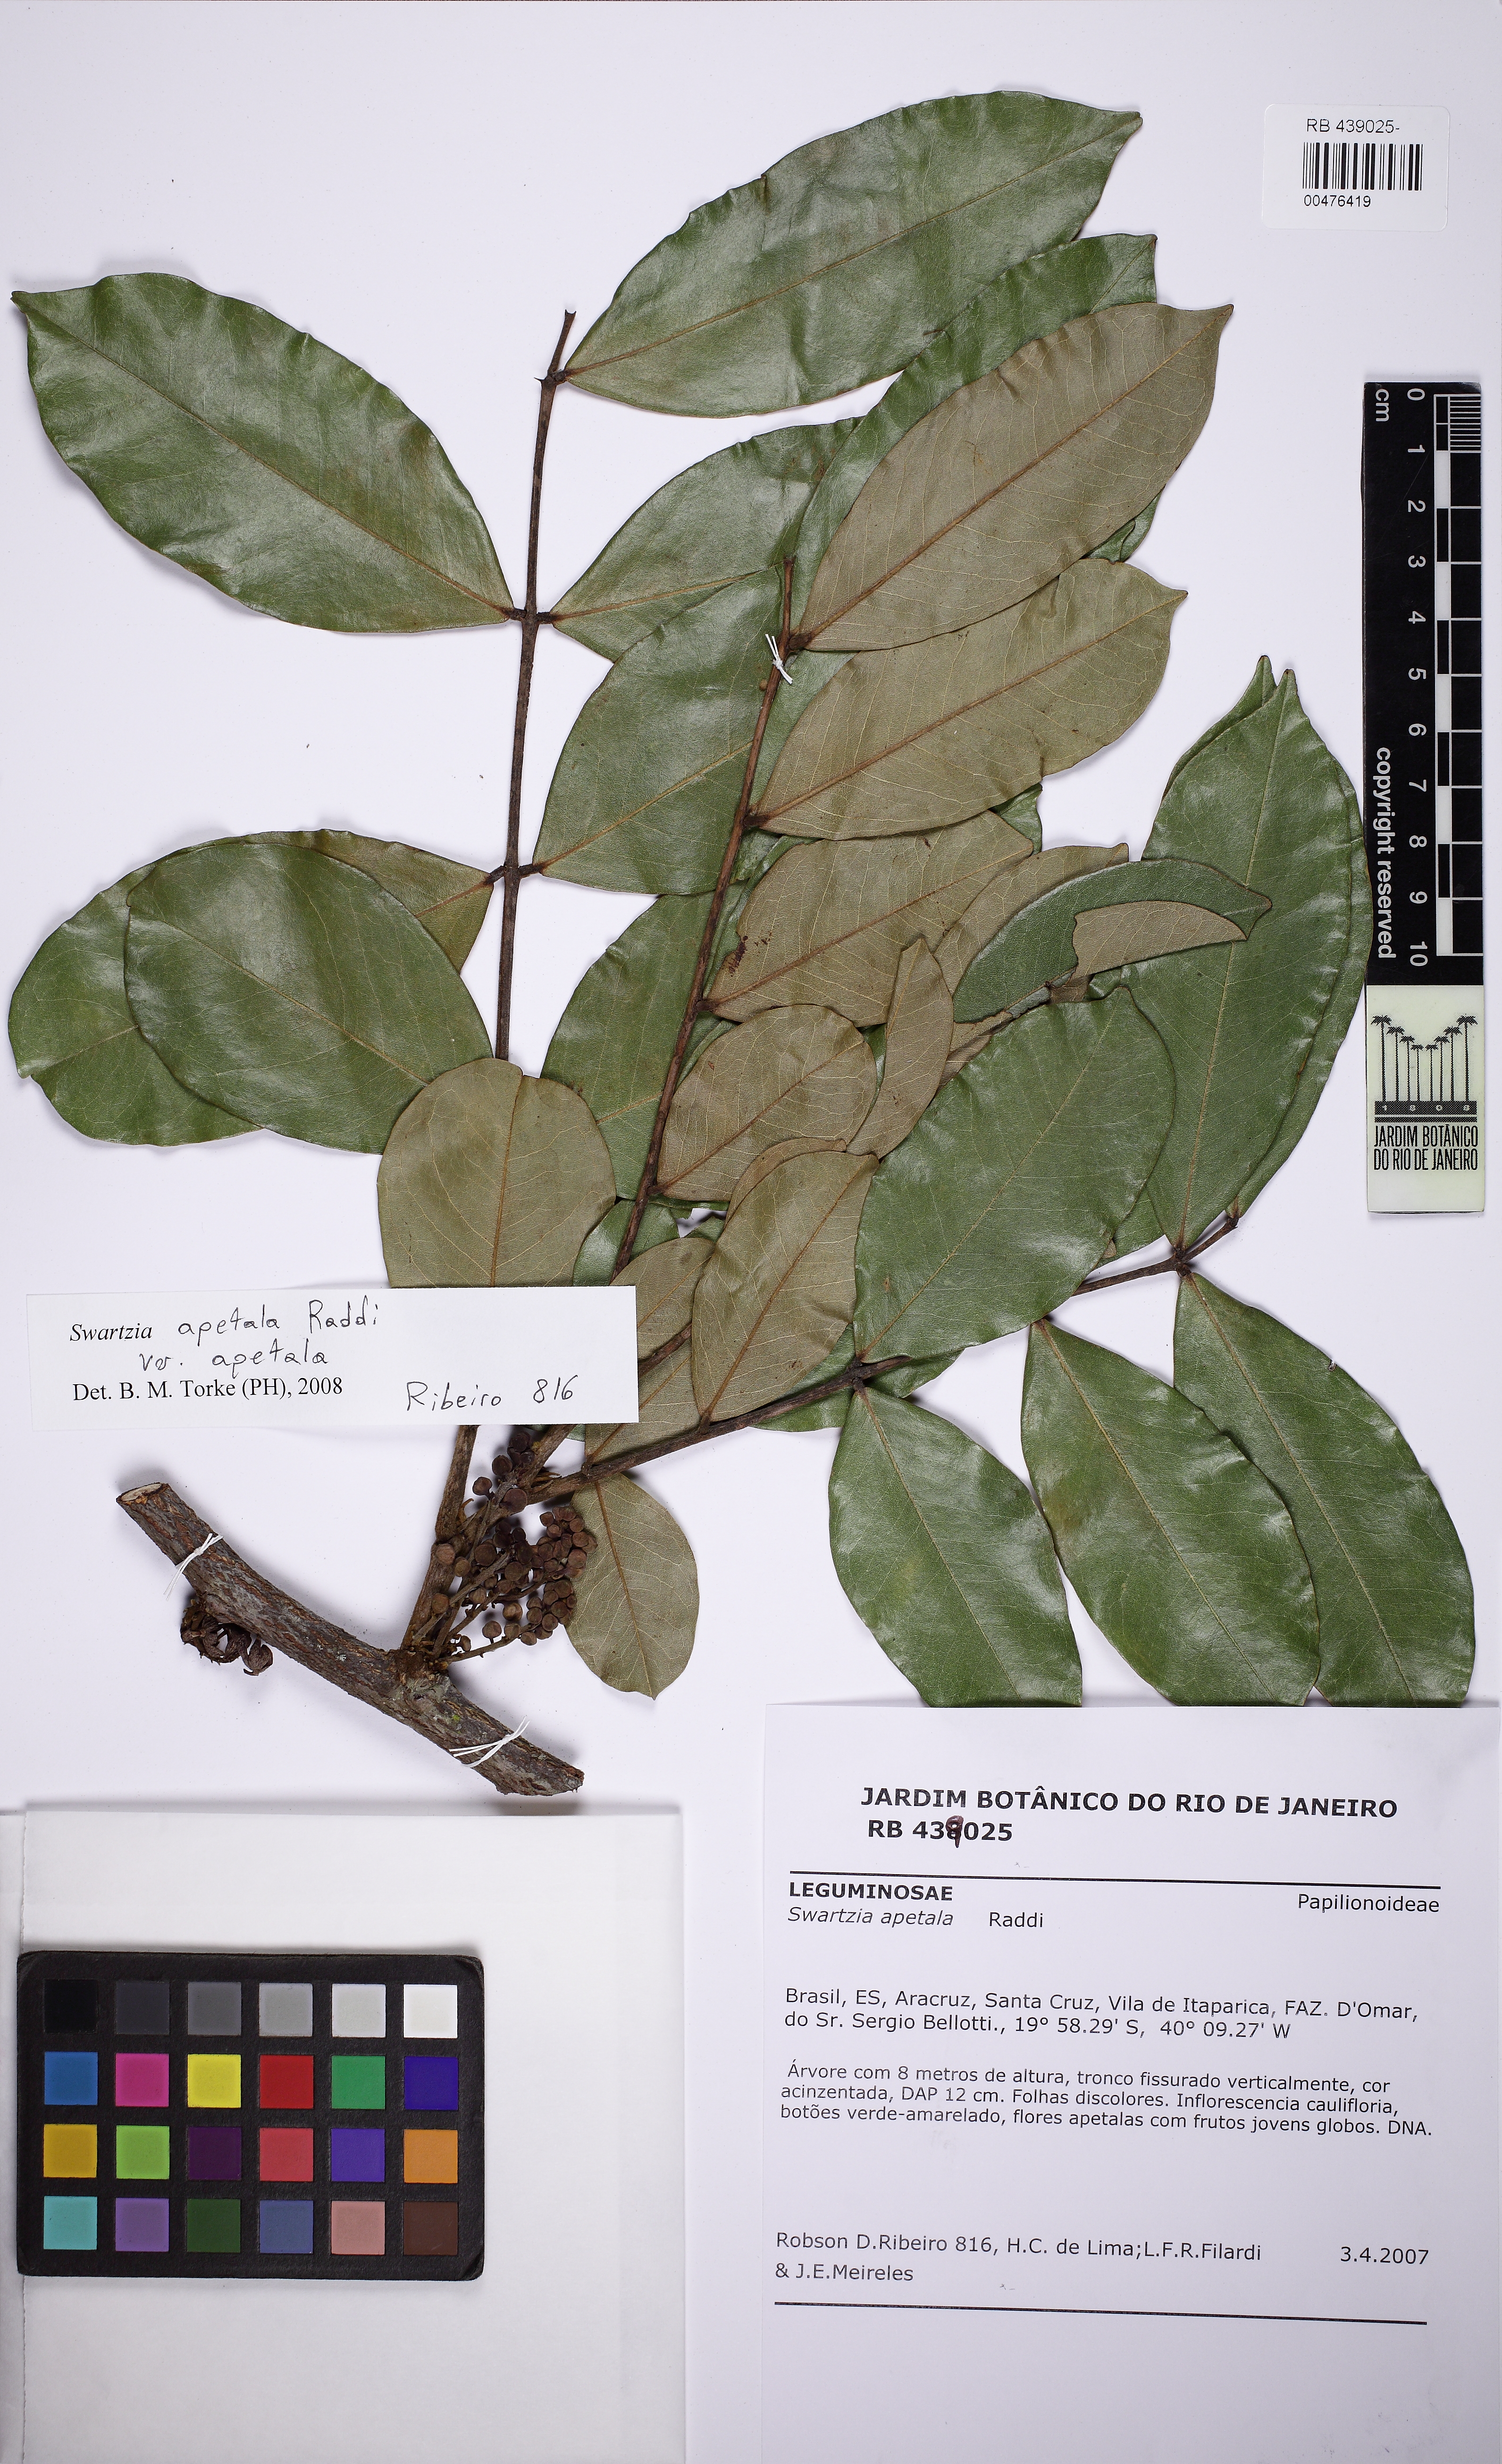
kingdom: Plantae
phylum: Tracheophyta
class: Magnoliopsida
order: Fabales
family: Fabaceae
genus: Swartzia
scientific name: Swartzia apetala
